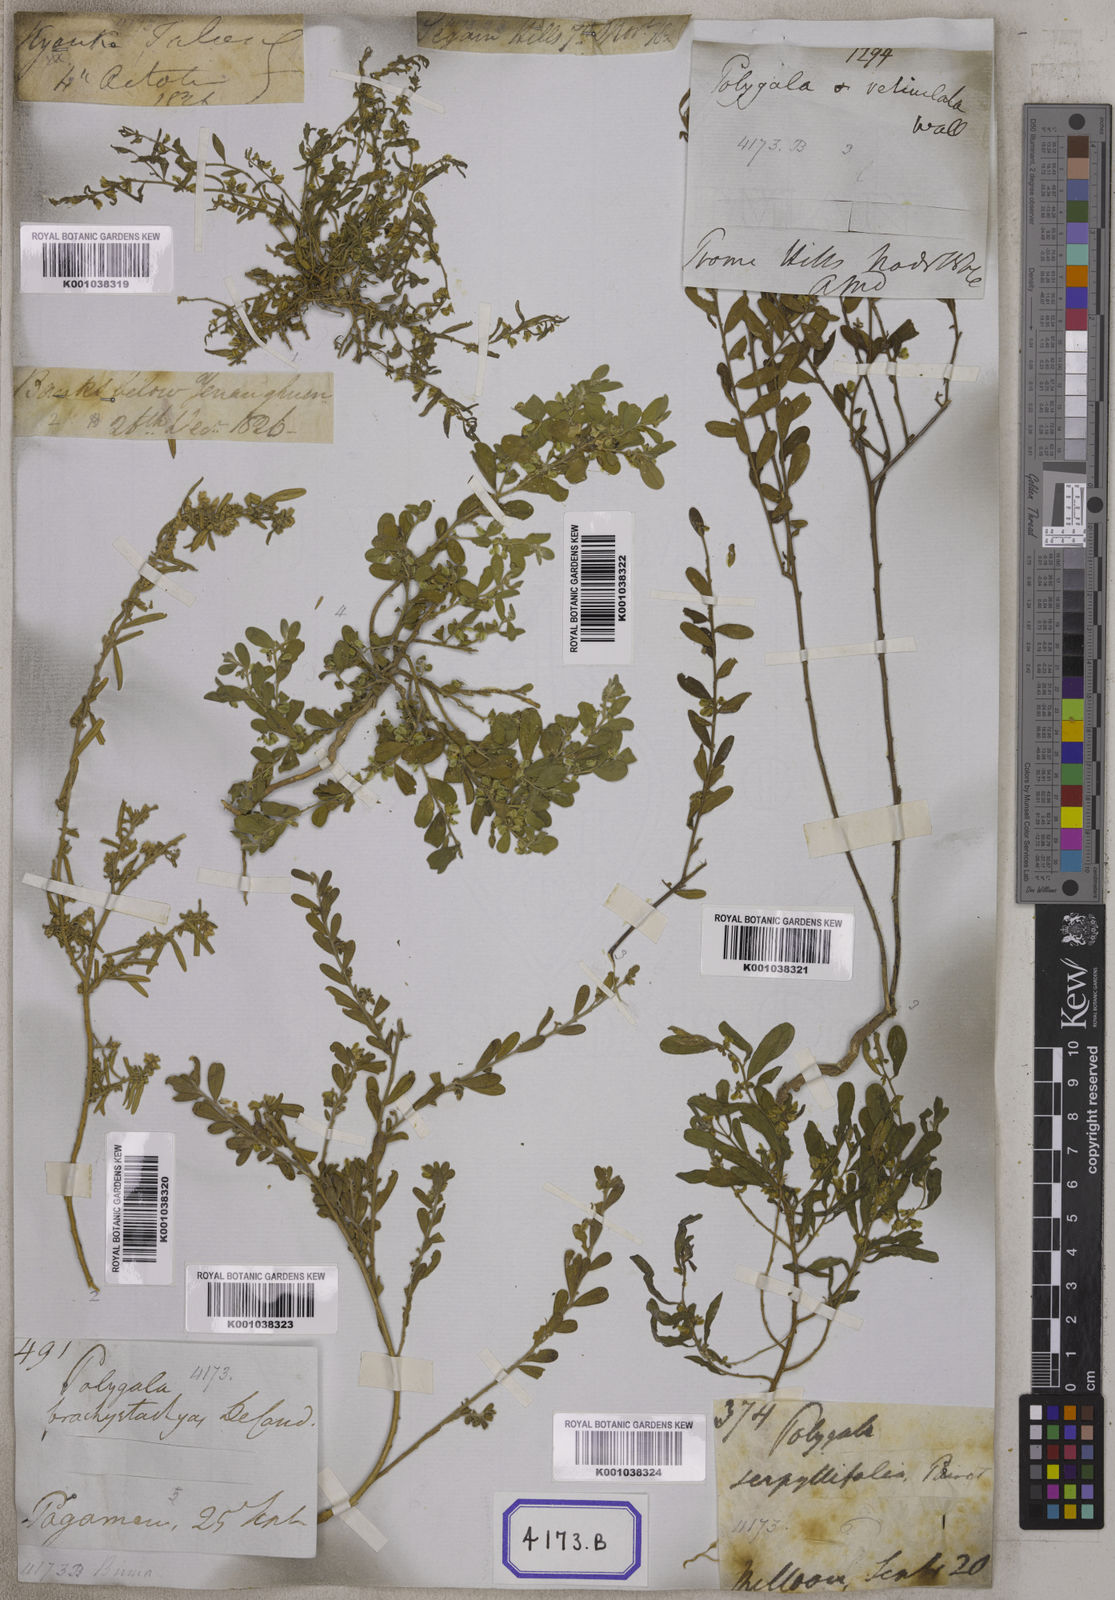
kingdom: Plantae
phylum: Tracheophyta
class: Magnoliopsida
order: Fabales
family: Polygalaceae
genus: Polygala
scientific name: Polygala
